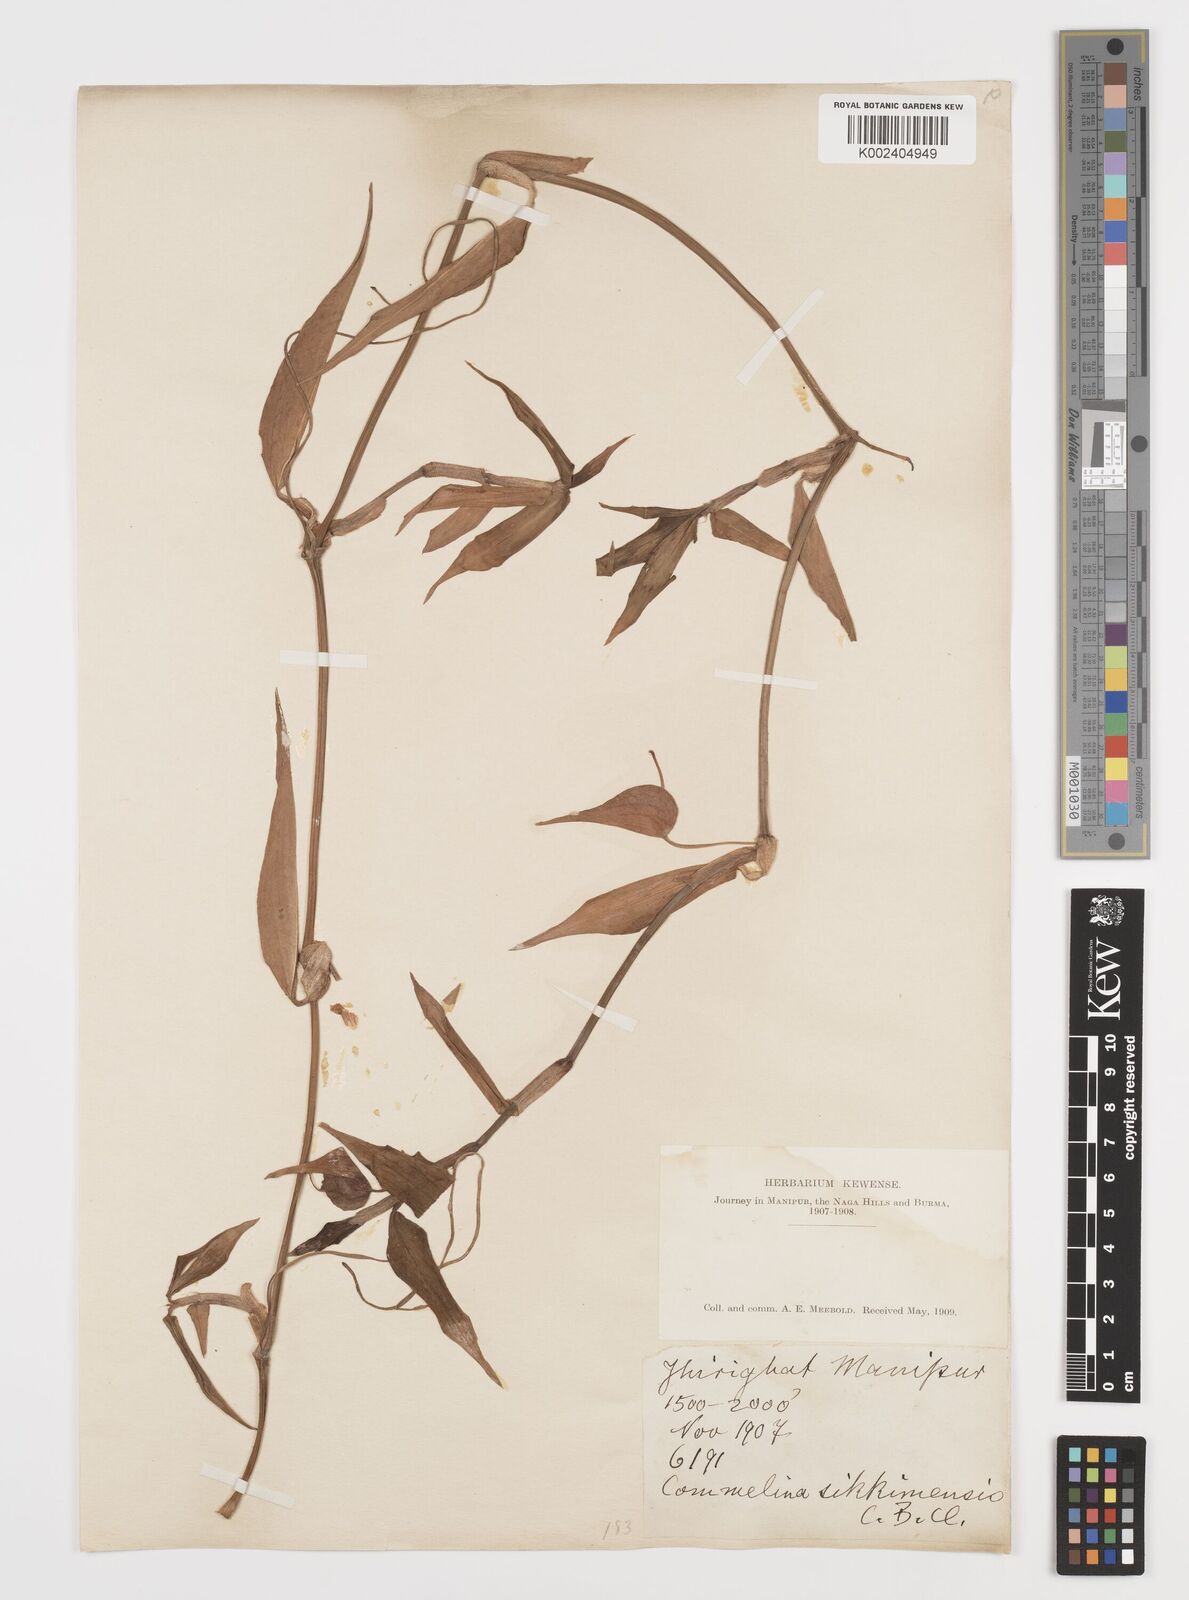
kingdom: Plantae
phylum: Tracheophyta
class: Liliopsida
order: Commelinales
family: Commelinaceae
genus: Commelina
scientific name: Commelina sikkimensis
